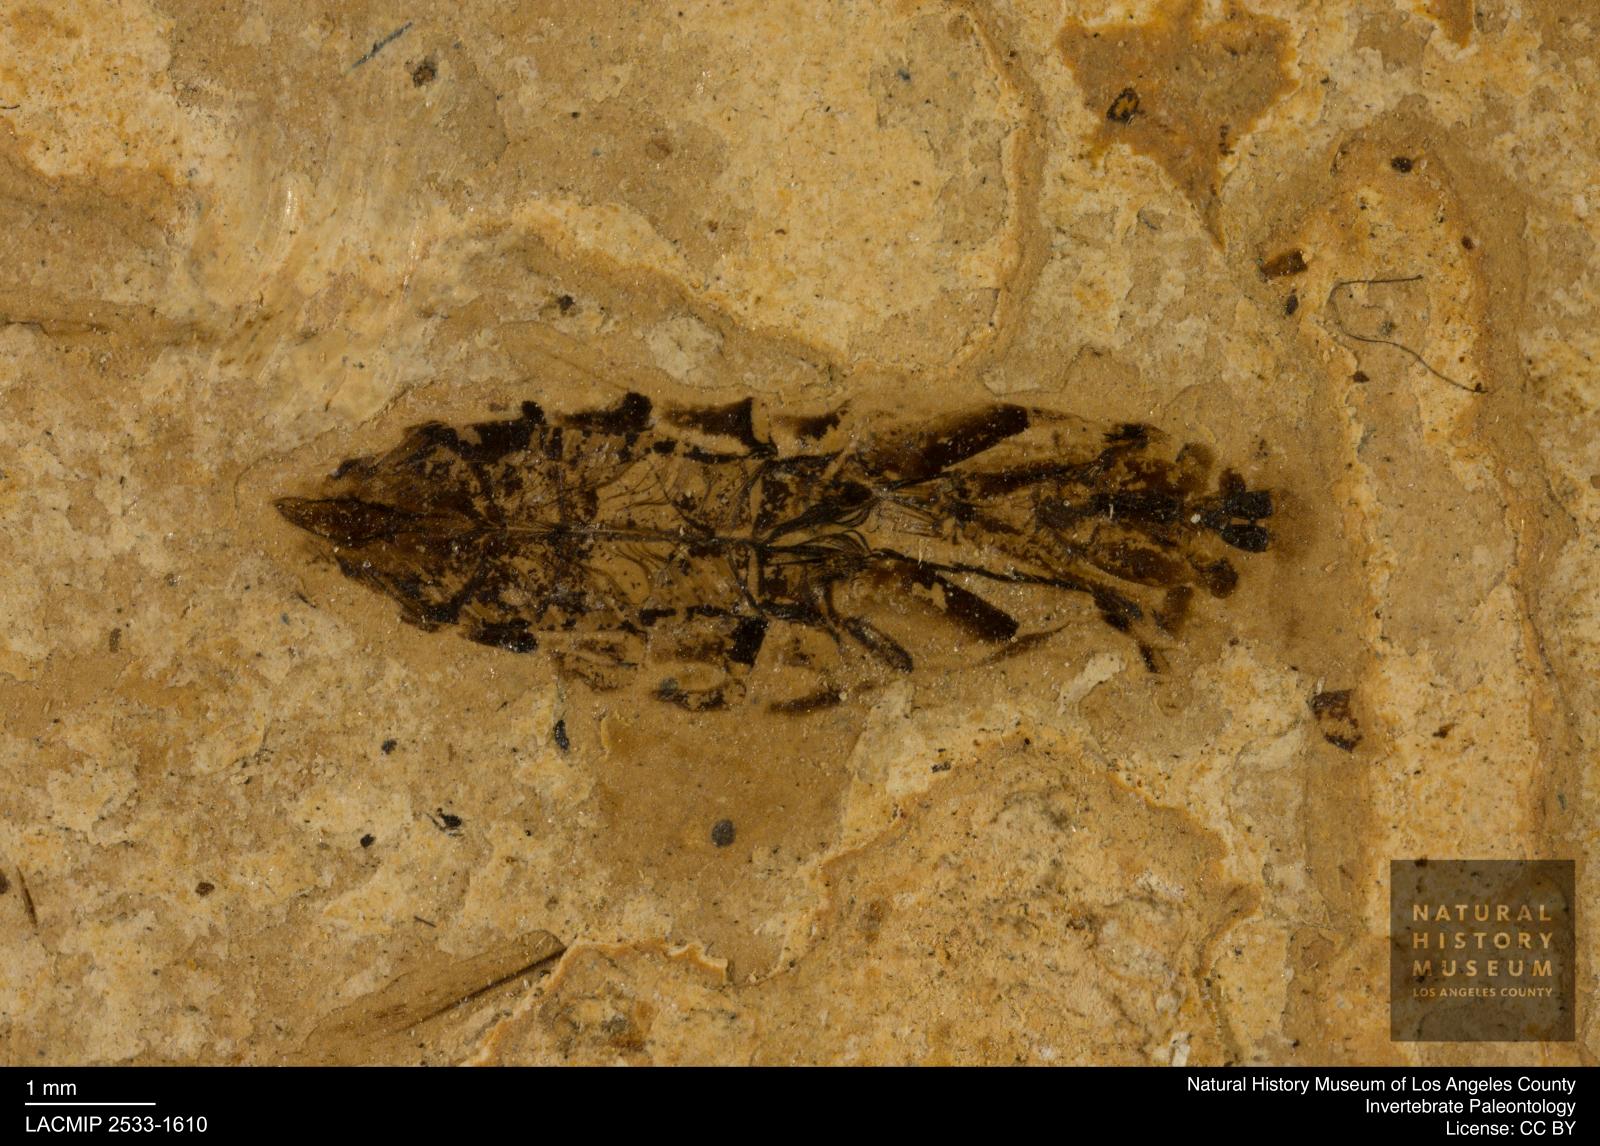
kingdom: Animalia
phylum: Arthropoda
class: Insecta
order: Hemiptera
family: Notonectidae
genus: Notonecta
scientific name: Notonecta
